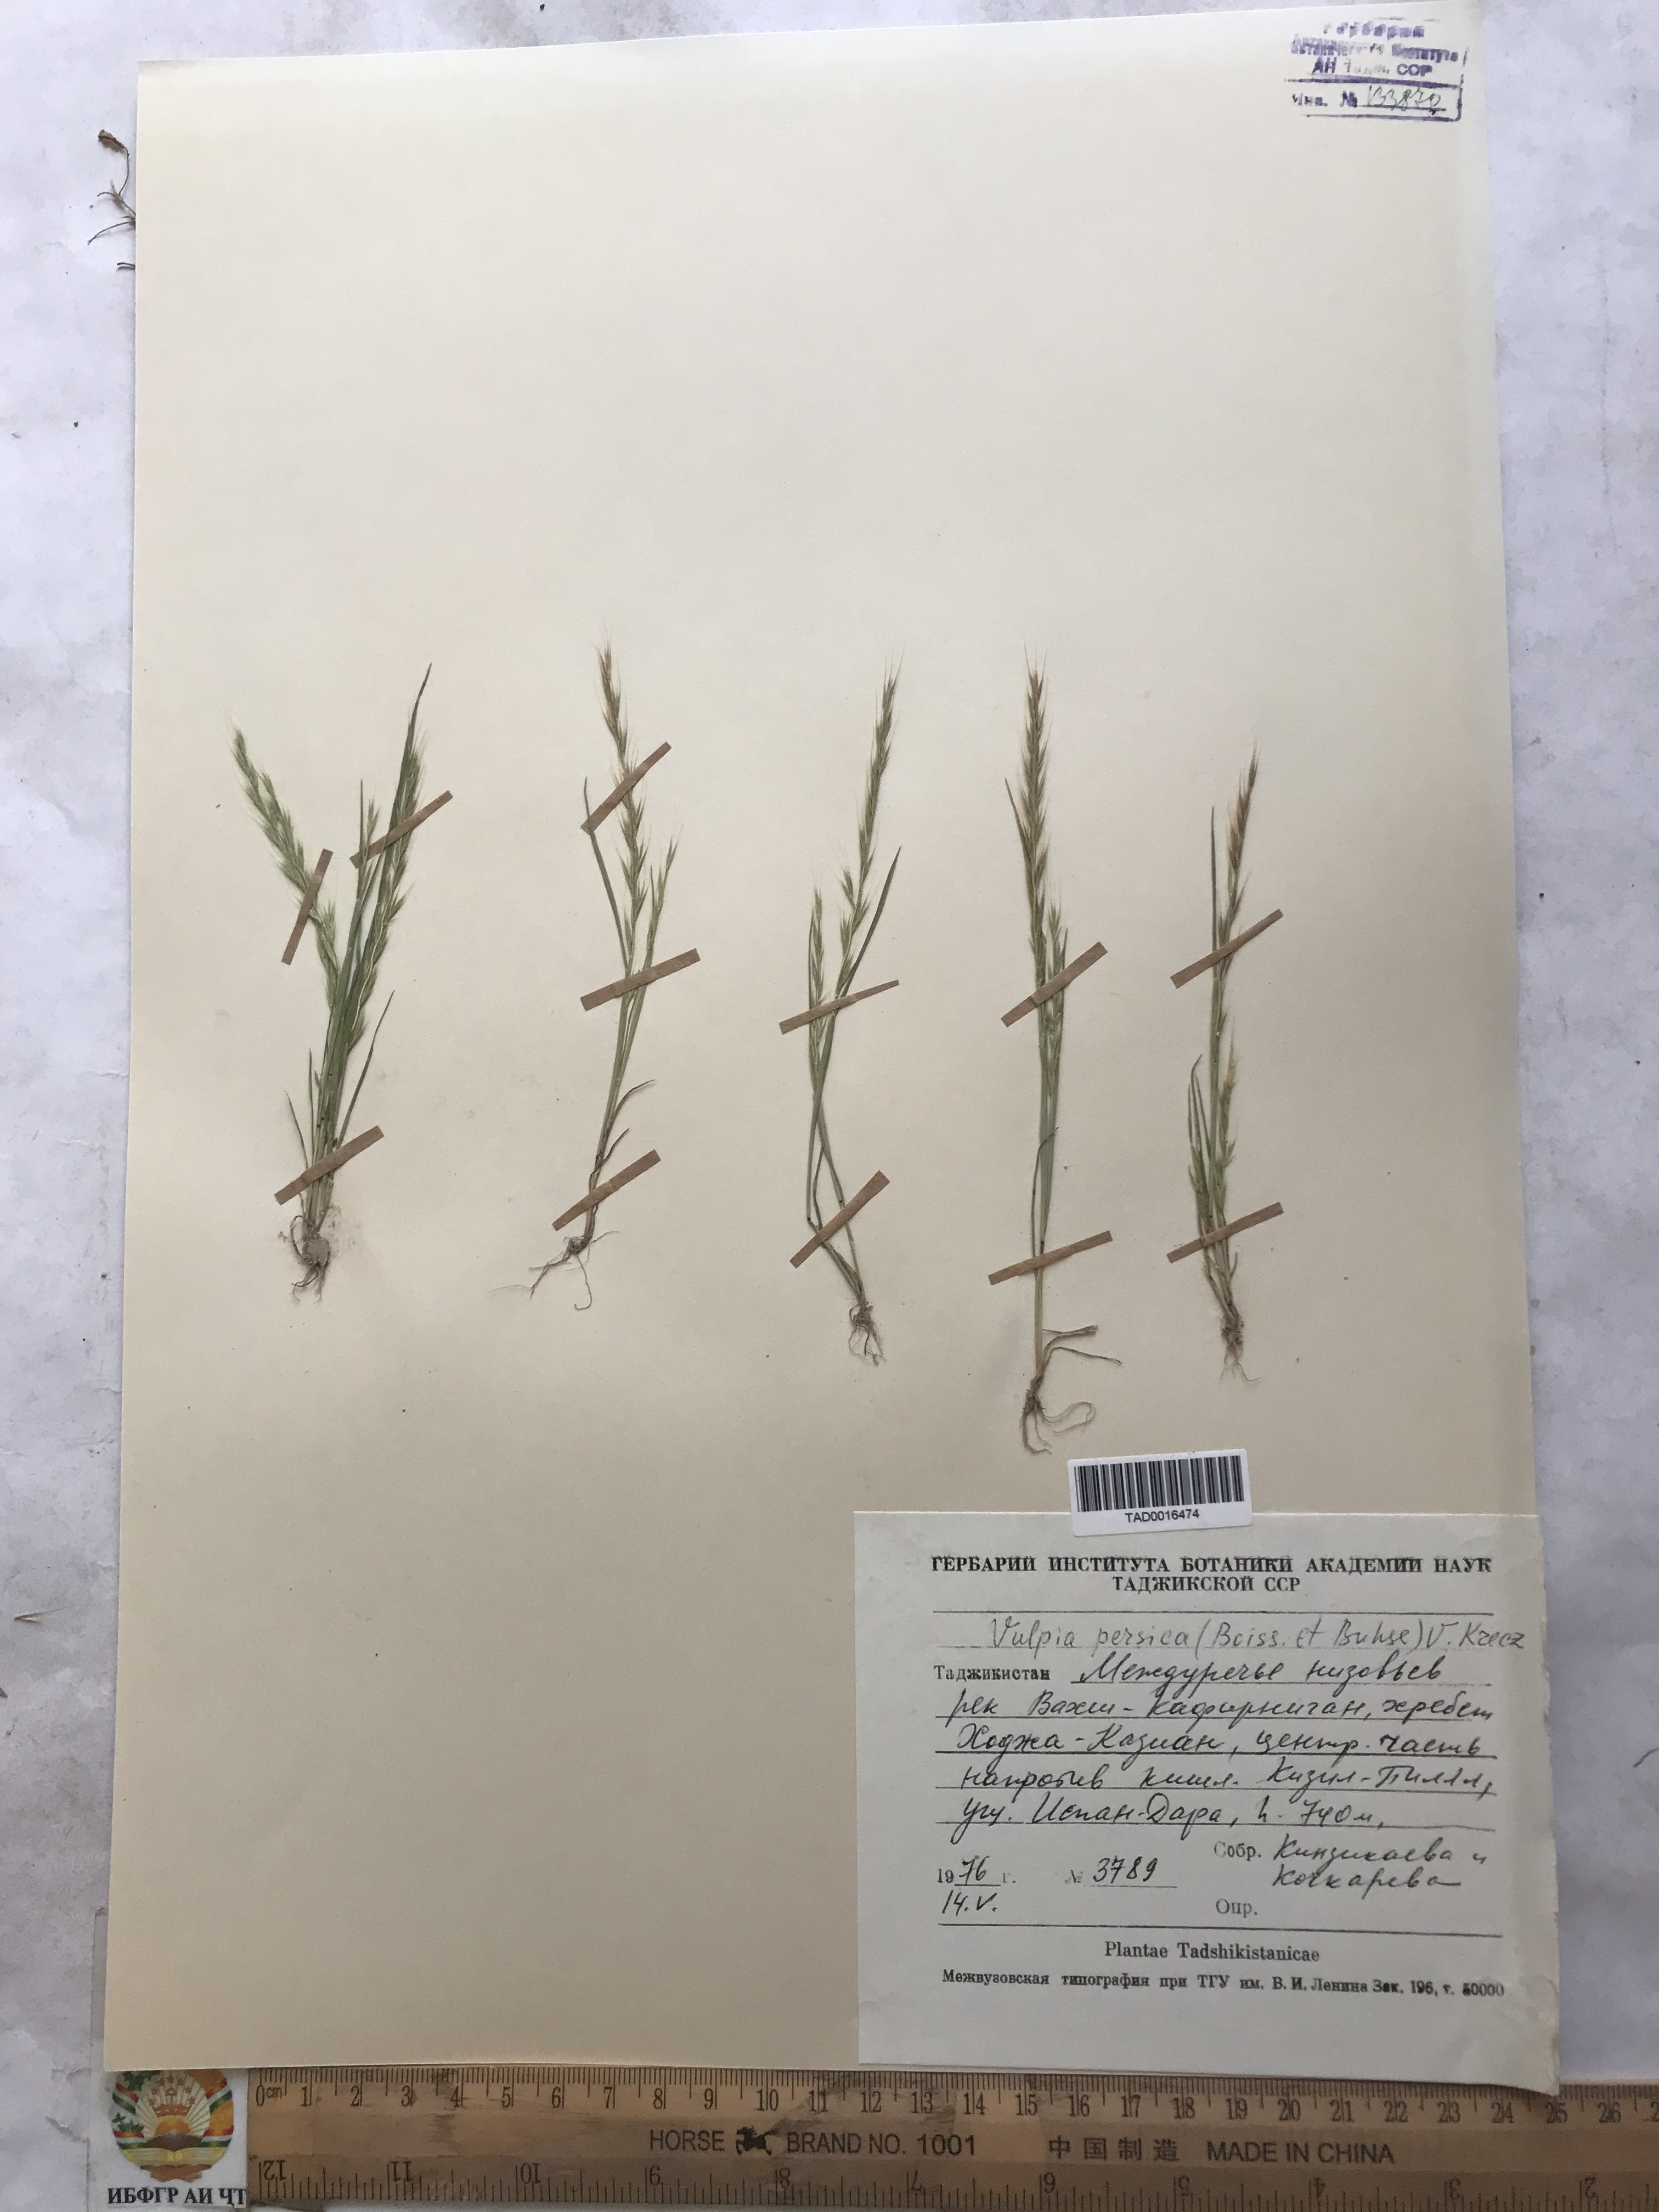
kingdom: Plantae
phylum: Tracheophyta
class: Liliopsida
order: Poales
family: Poaceae
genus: Festuca
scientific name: Festuca Vulpia persica
